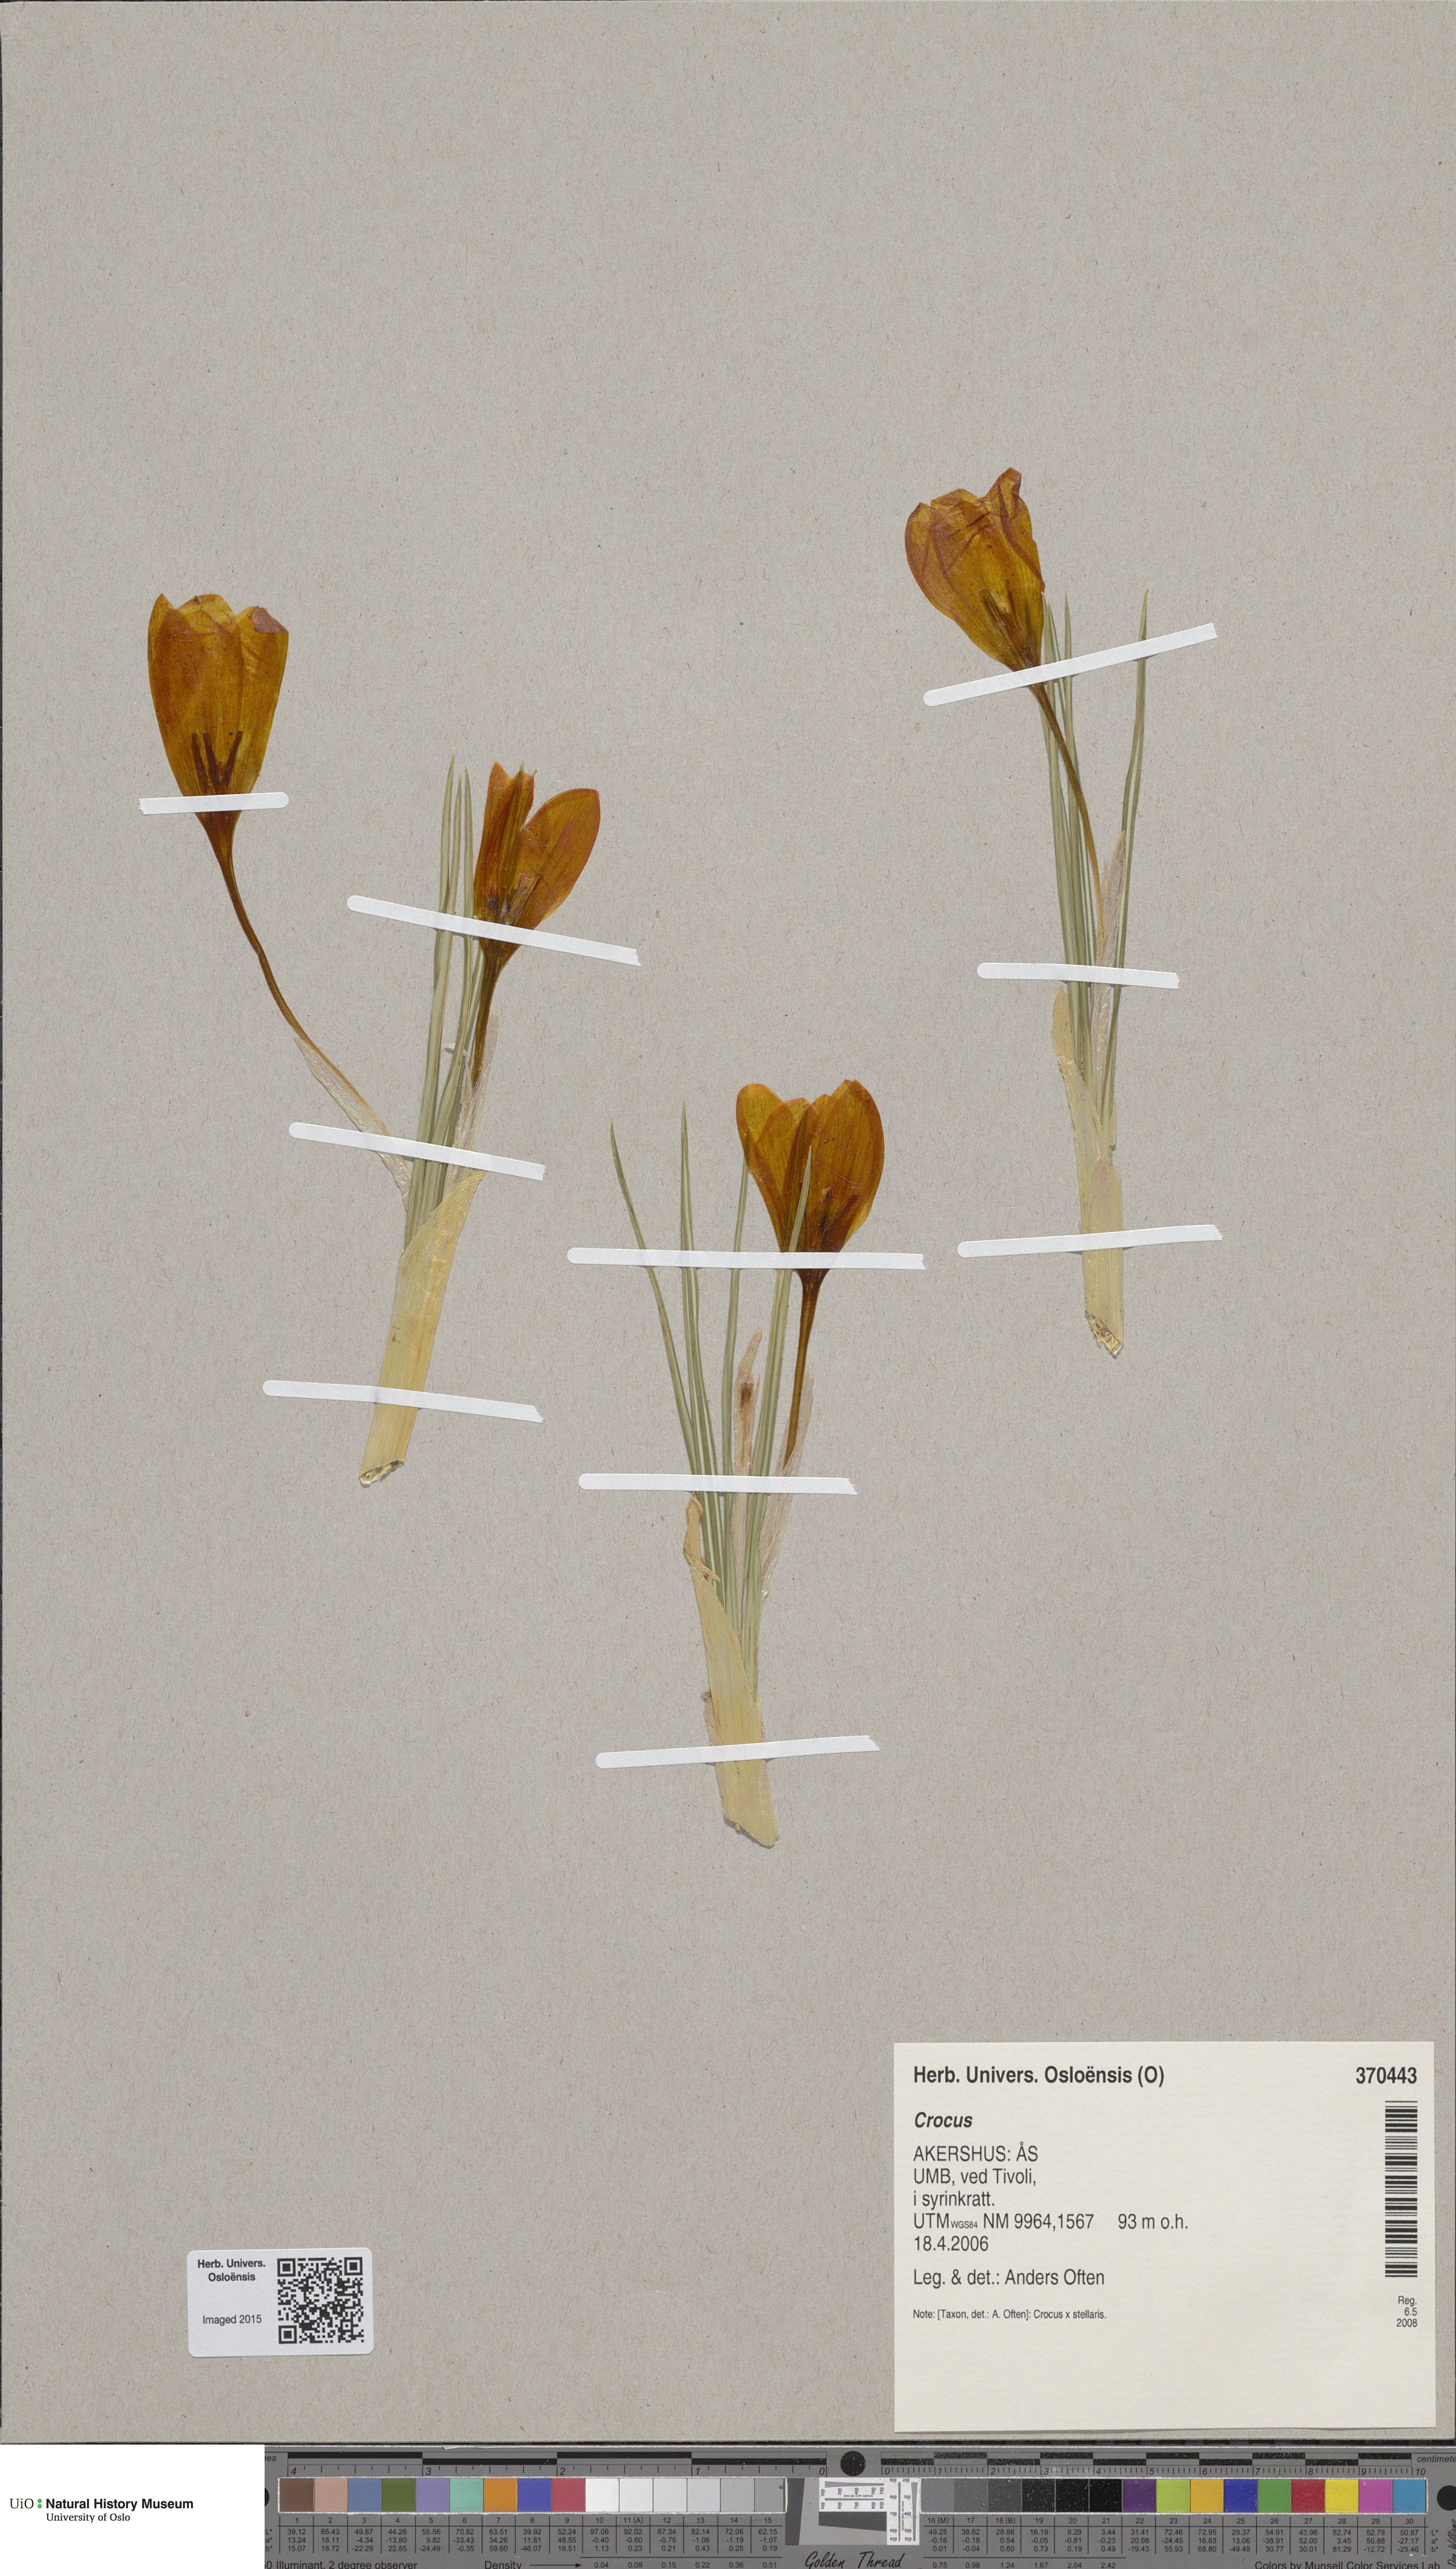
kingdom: Plantae
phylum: Tracheophyta
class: Liliopsida
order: Asparagales
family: Iridaceae
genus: Crocus
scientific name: Crocus luteus
